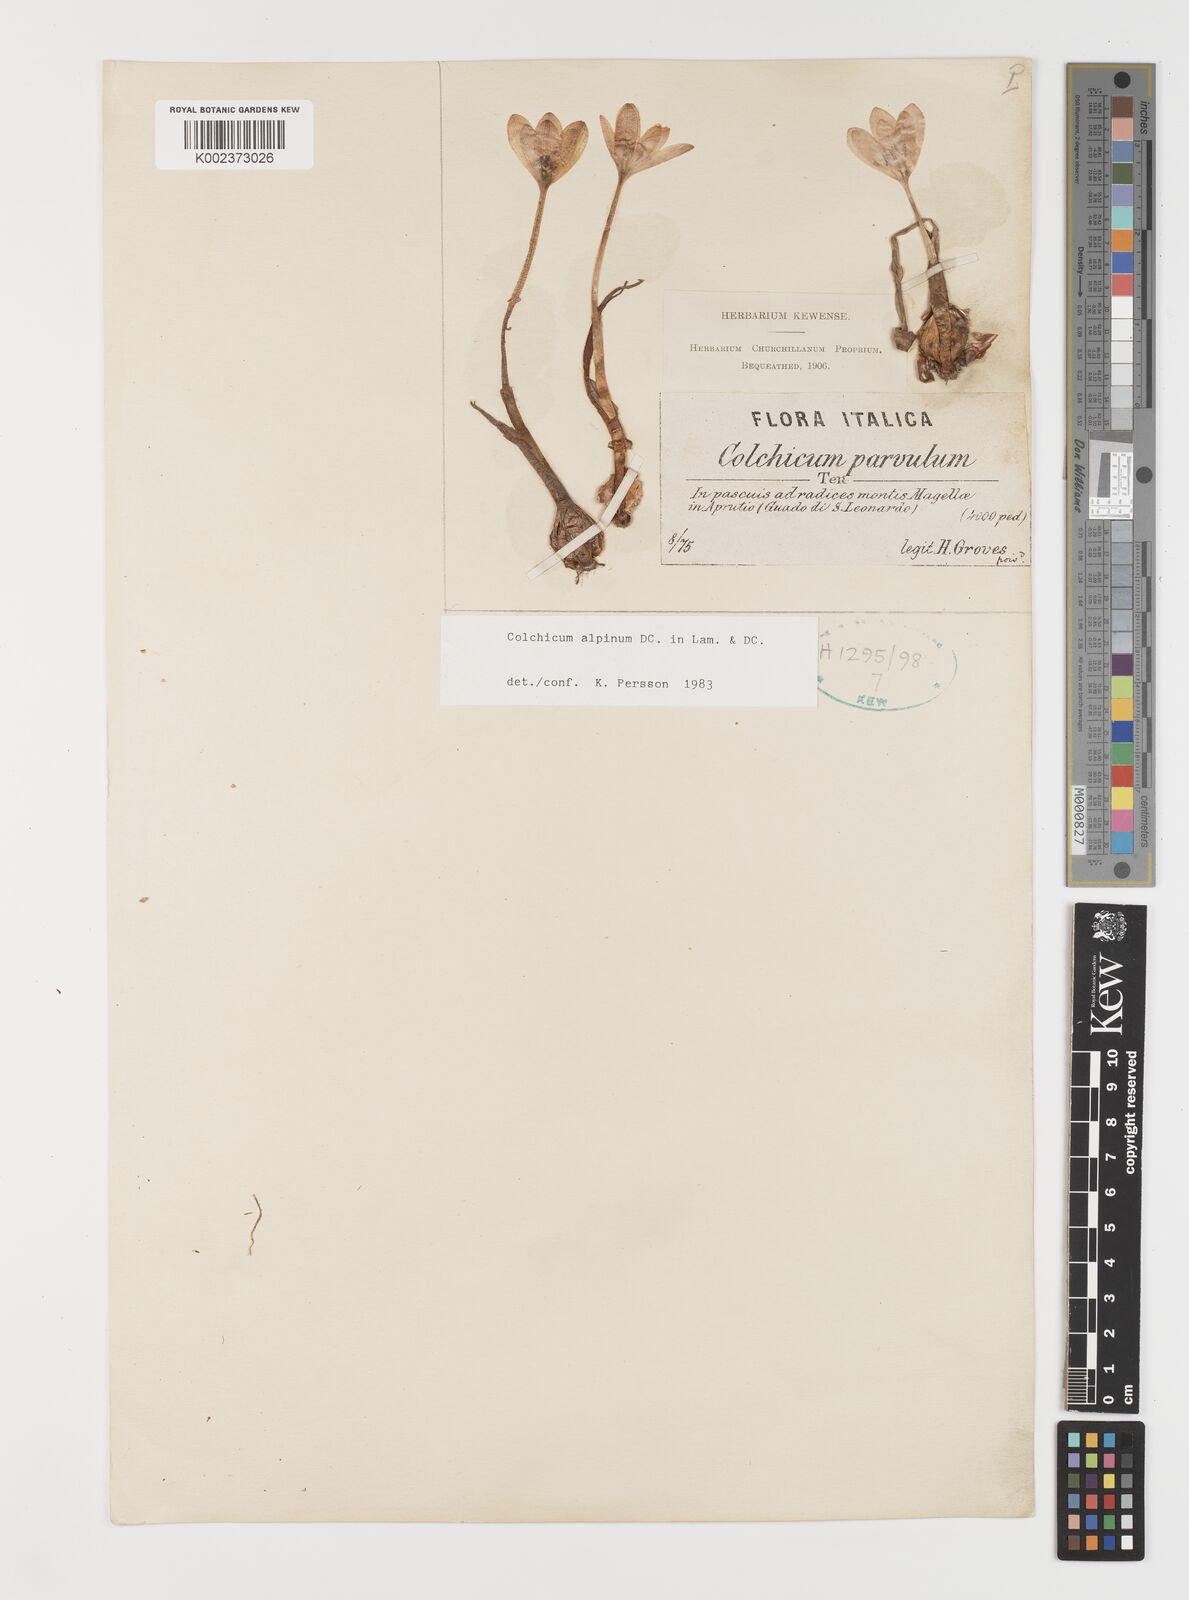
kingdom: Plantae
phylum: Tracheophyta
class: Liliopsida
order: Liliales
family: Colchicaceae
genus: Colchicum
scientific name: Colchicum alpinum
